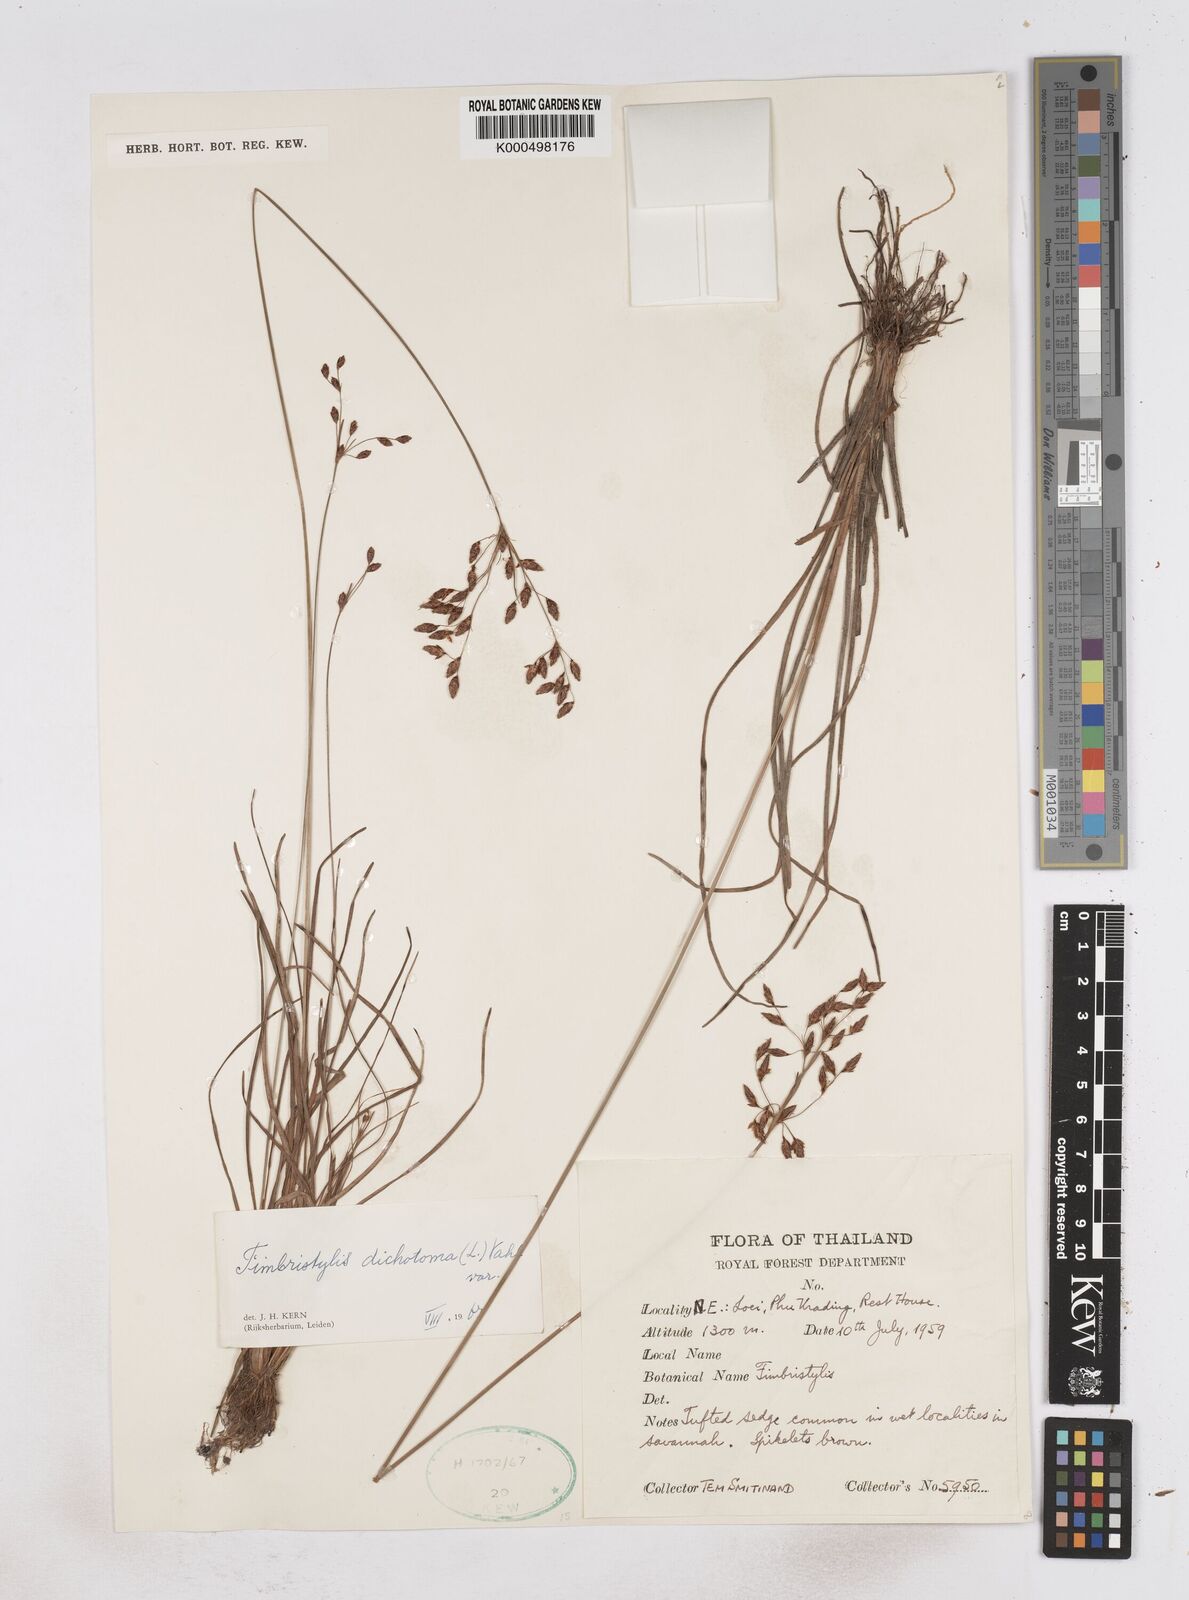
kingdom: Plantae
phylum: Tracheophyta
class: Liliopsida
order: Poales
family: Cyperaceae
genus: Fimbristylis
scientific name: Fimbristylis dichotoma
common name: Forked fimbry
